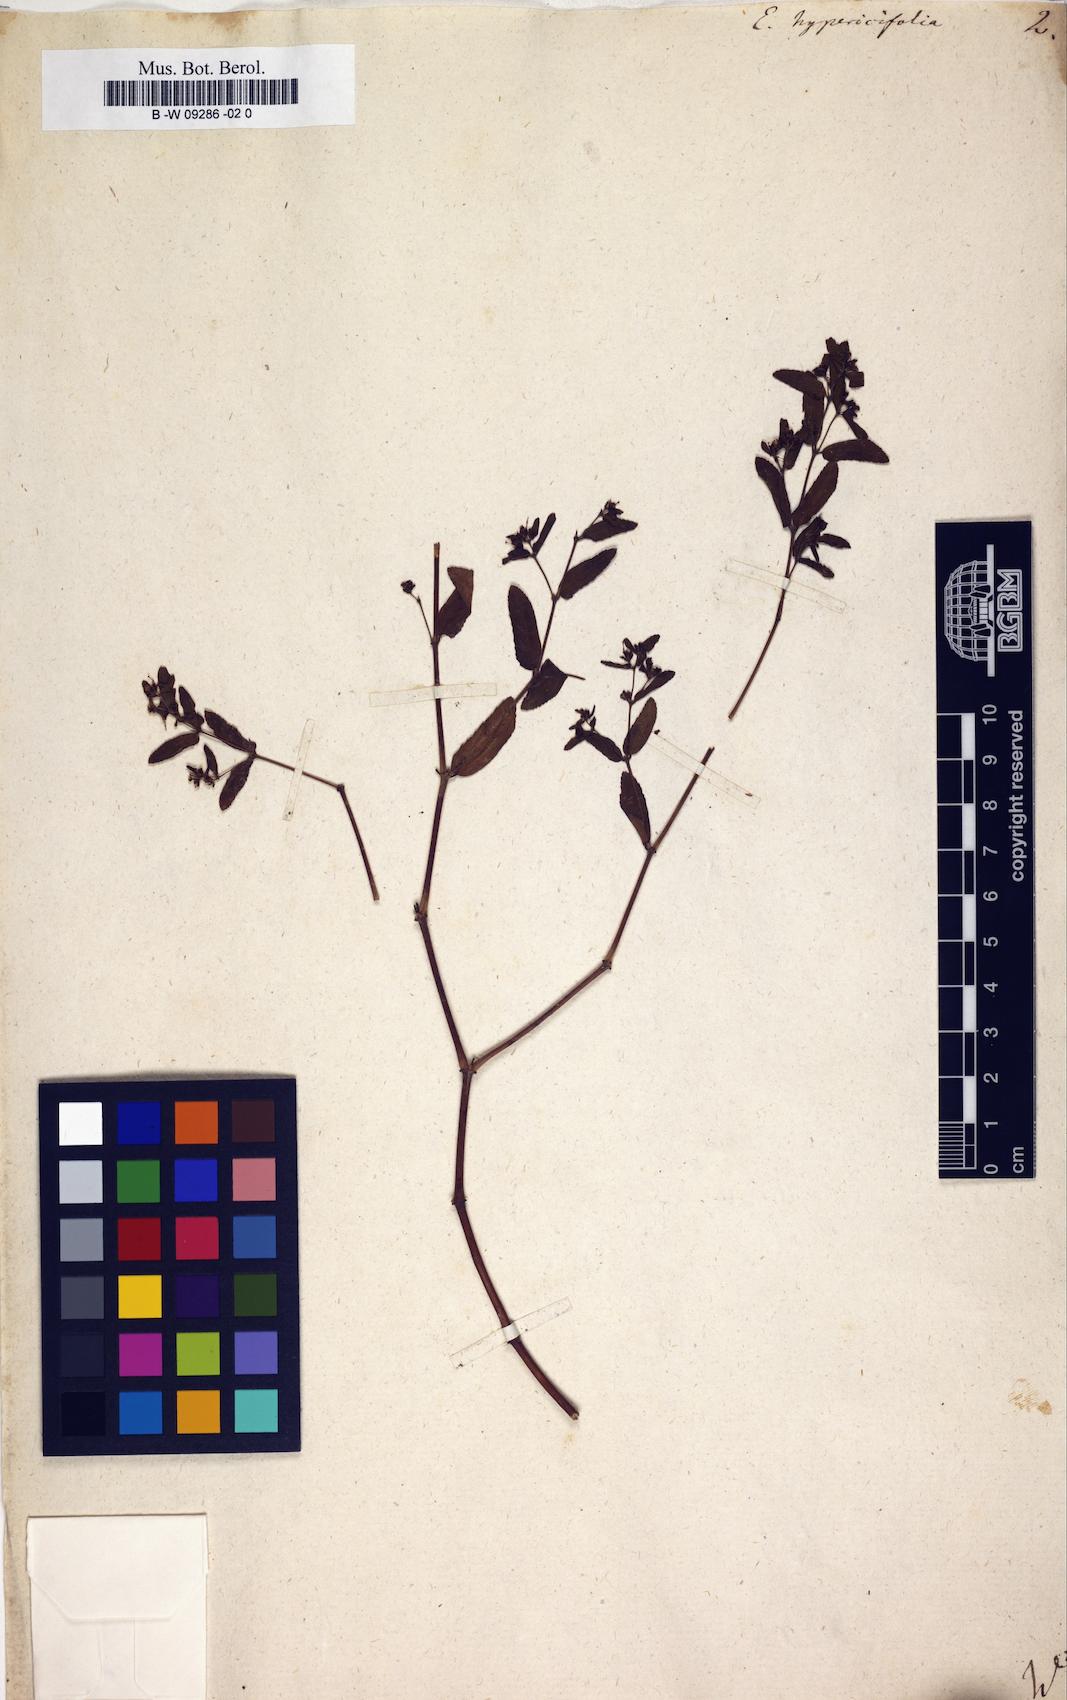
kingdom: Plantae
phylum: Tracheophyta
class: Magnoliopsida
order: Malpighiales
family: Euphorbiaceae
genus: Euphorbia
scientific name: Euphorbia hypericifolia
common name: Graceful sandmat
